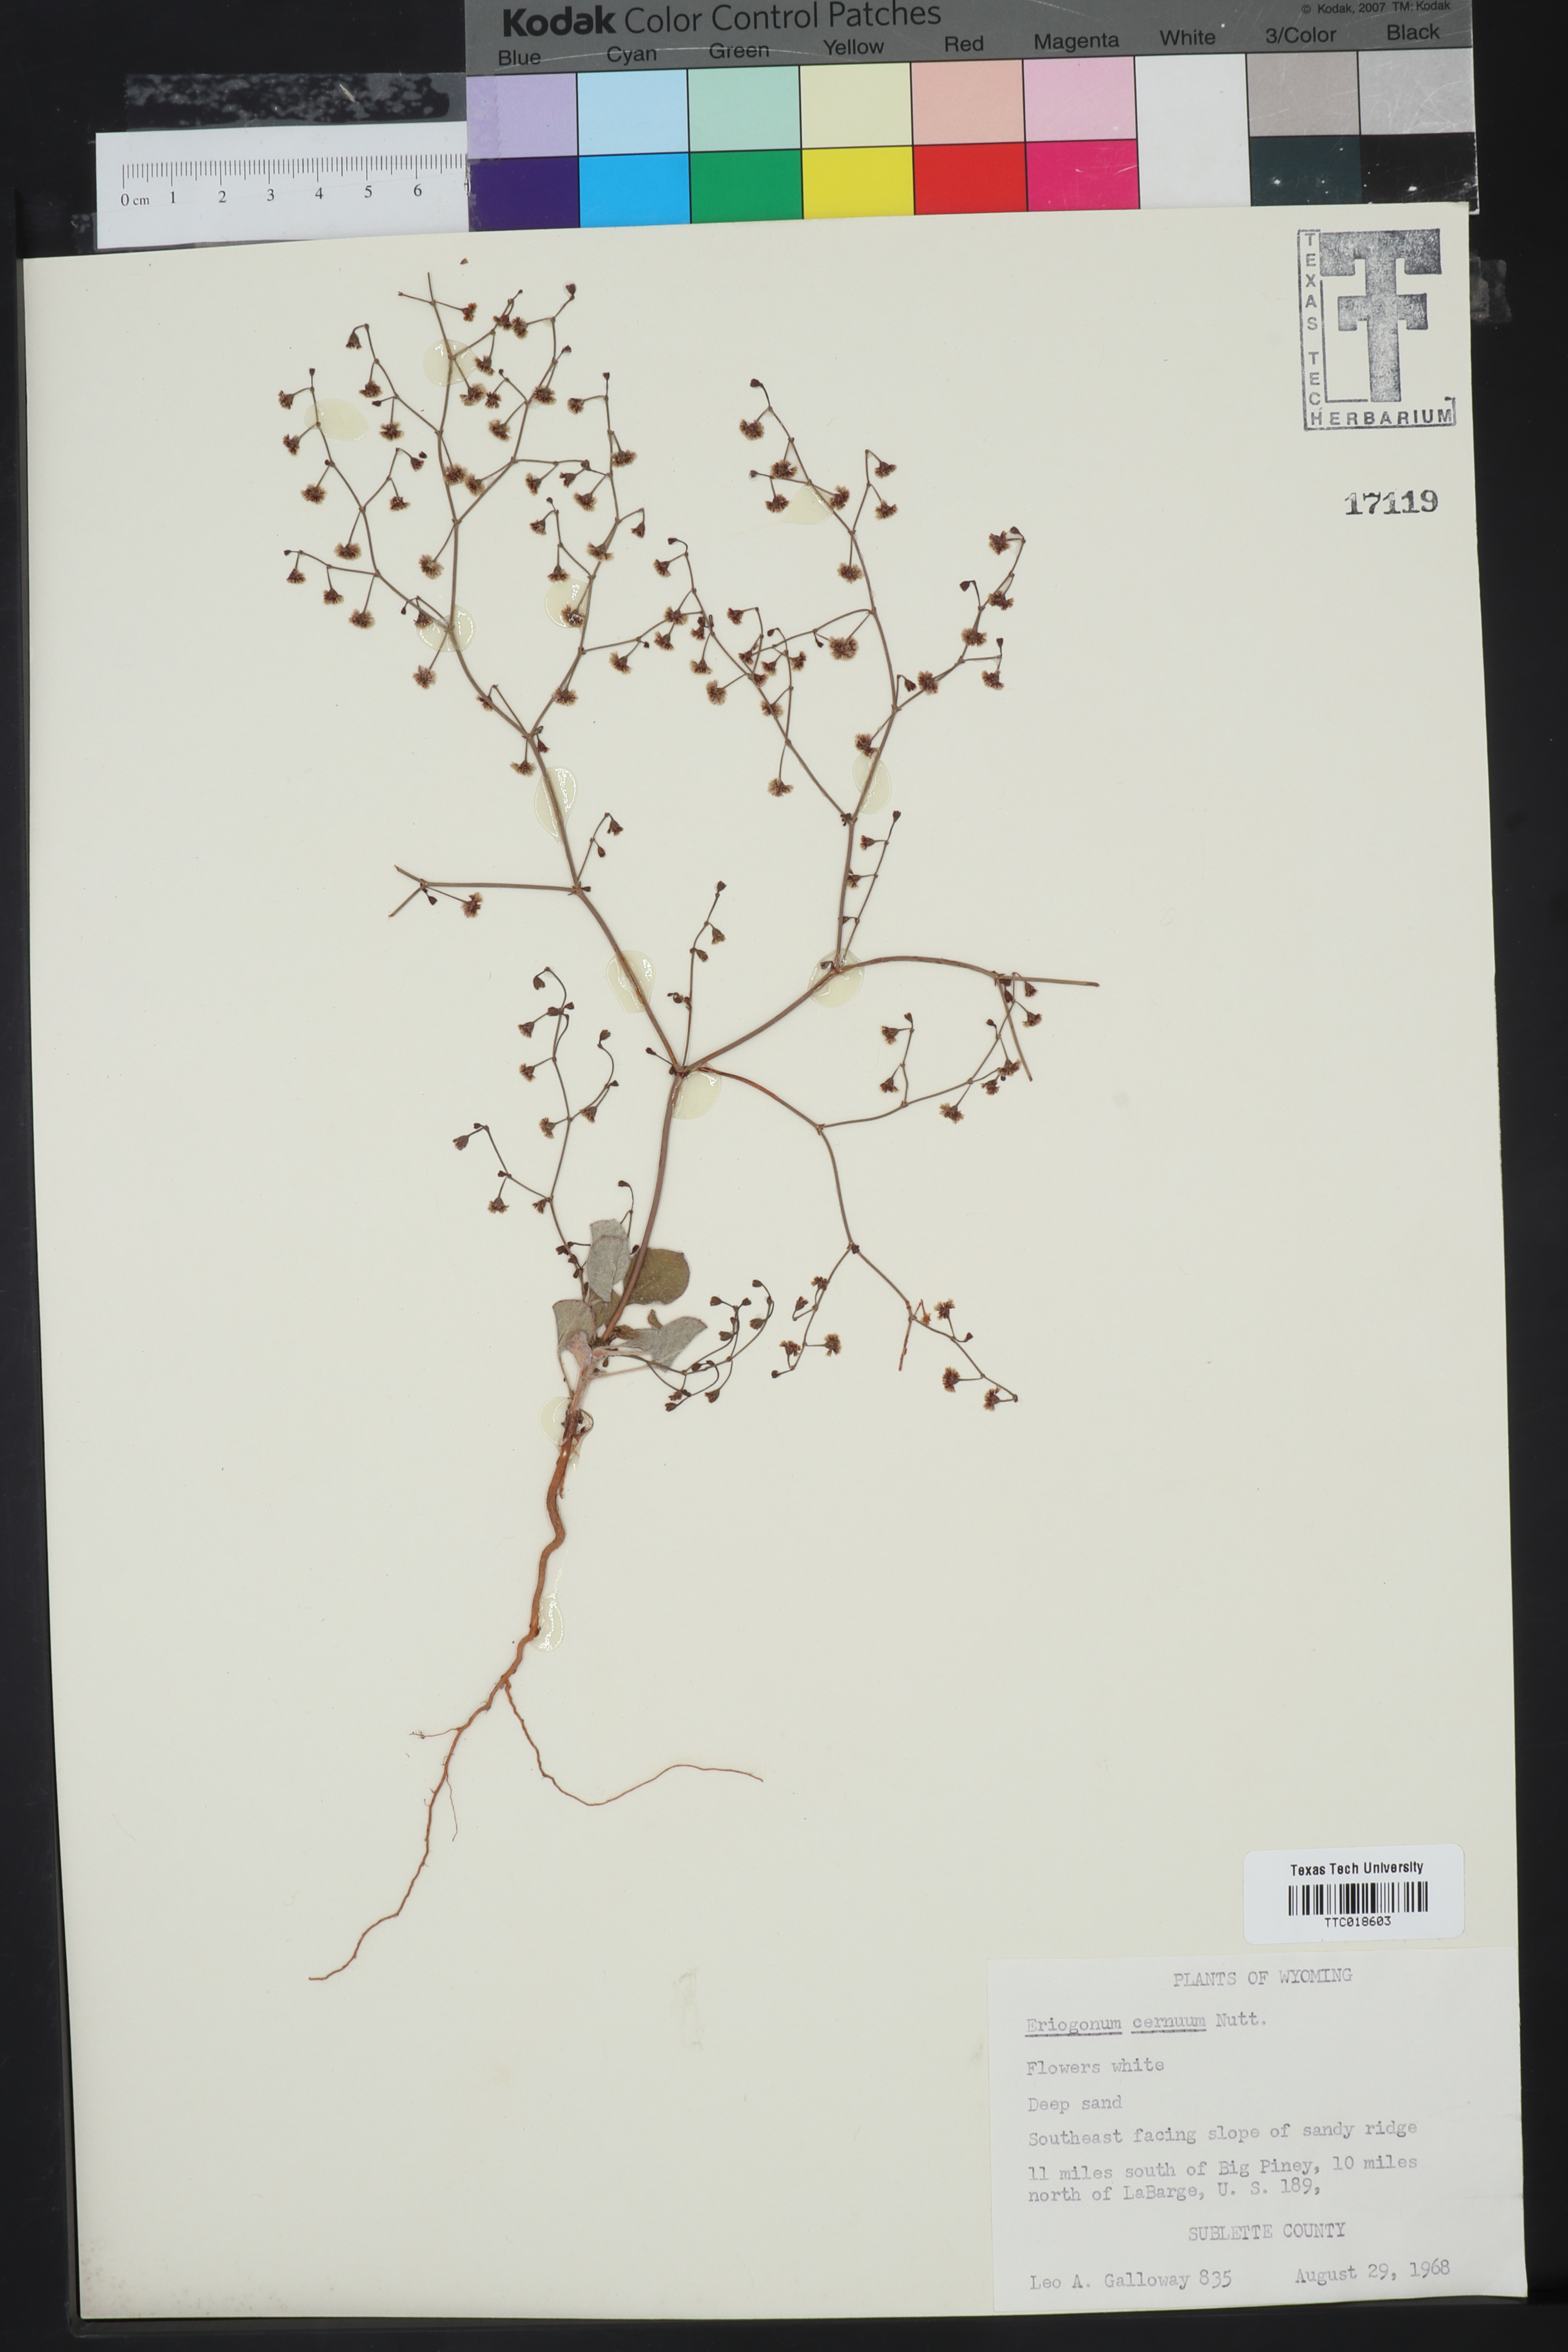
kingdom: Plantae
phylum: Tracheophyta
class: Magnoliopsida
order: Caryophyllales
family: Polygonaceae
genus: Eriogonum
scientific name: Eriogonum cernuum
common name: Nodding wild buckwheat
